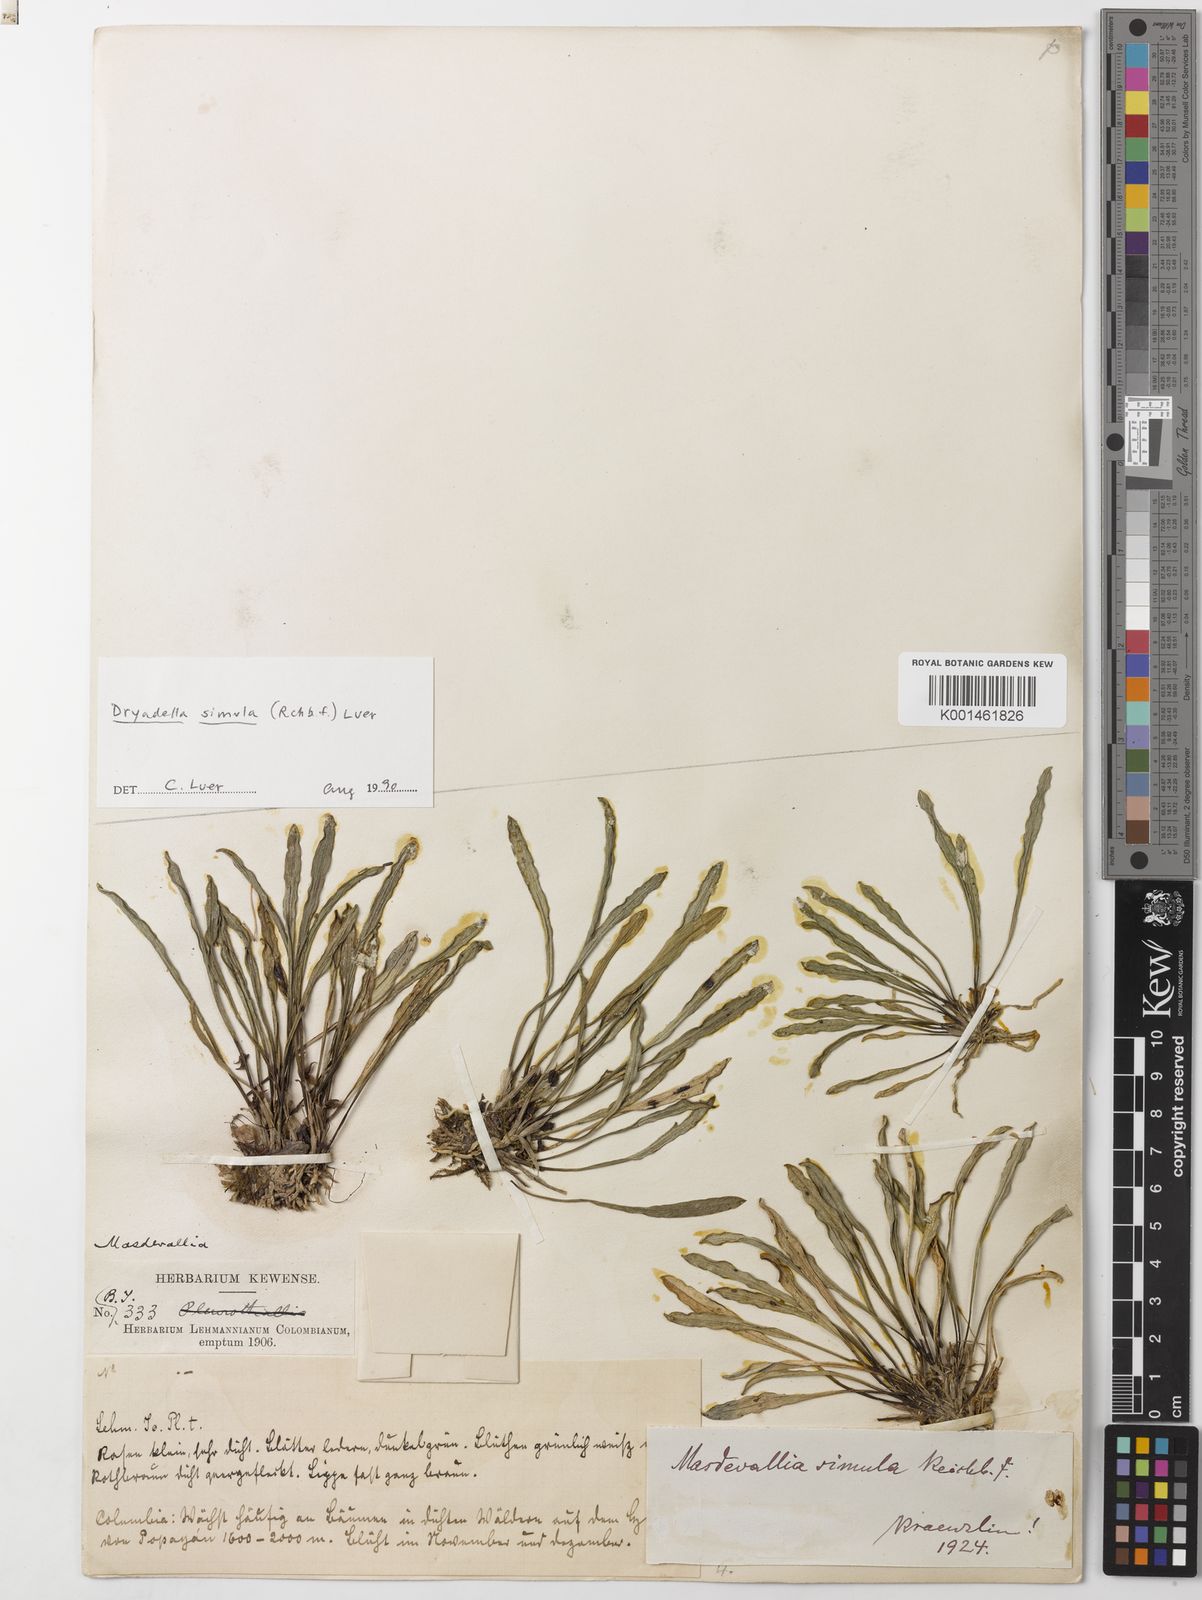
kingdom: Plantae
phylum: Tracheophyta
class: Liliopsida
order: Asparagales
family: Orchidaceae
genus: Dryadella
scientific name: Dryadella simula
